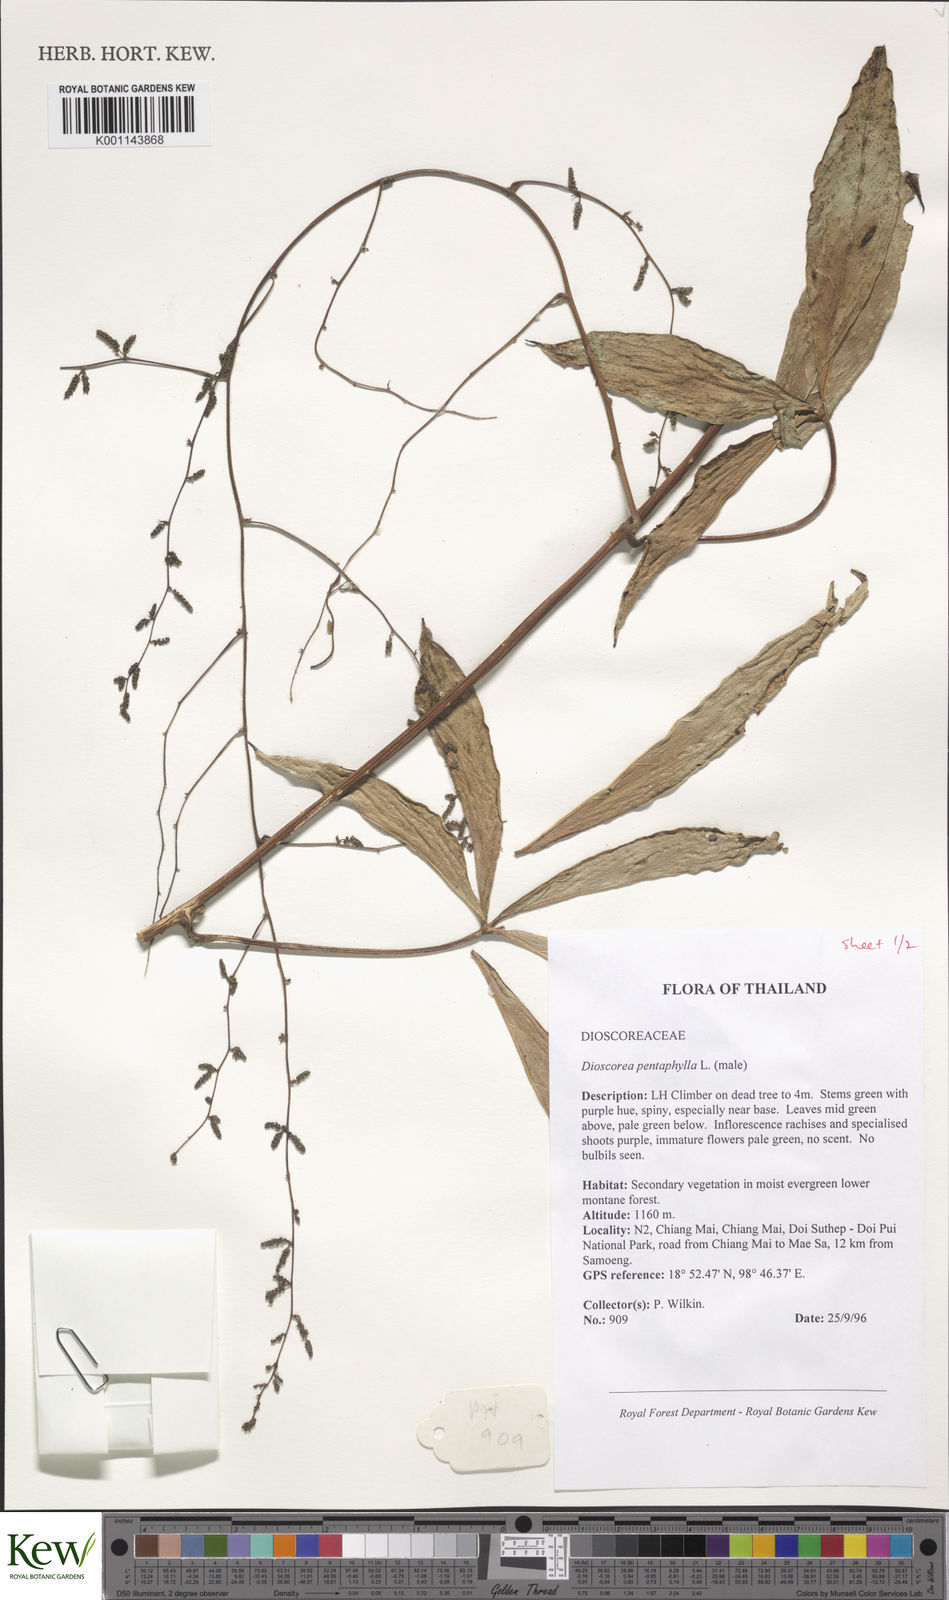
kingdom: Plantae
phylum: Tracheophyta
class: Liliopsida
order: Dioscoreales
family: Dioscoreaceae
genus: Dioscorea
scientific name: Dioscorea pentaphylla
